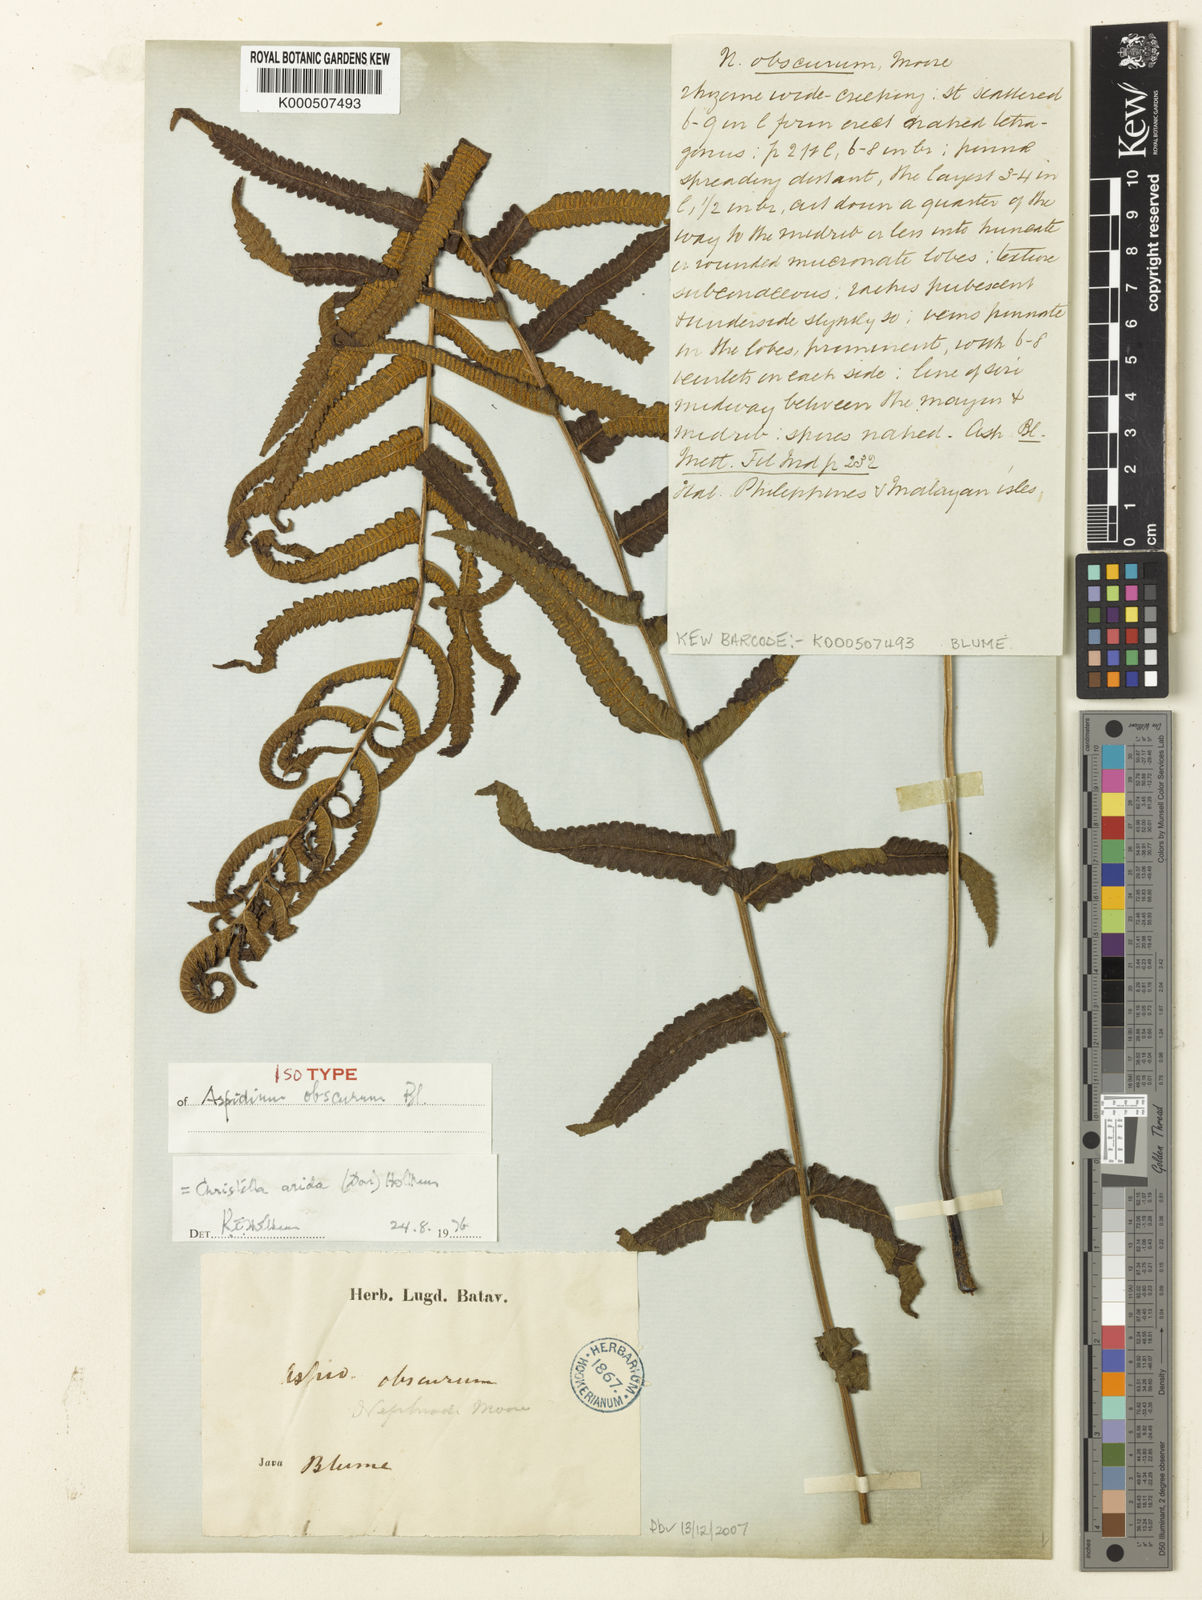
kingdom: Plantae
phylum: Tracheophyta
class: Polypodiopsida
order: Polypodiales
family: Thelypteridaceae
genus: Christella
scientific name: Christella arida
